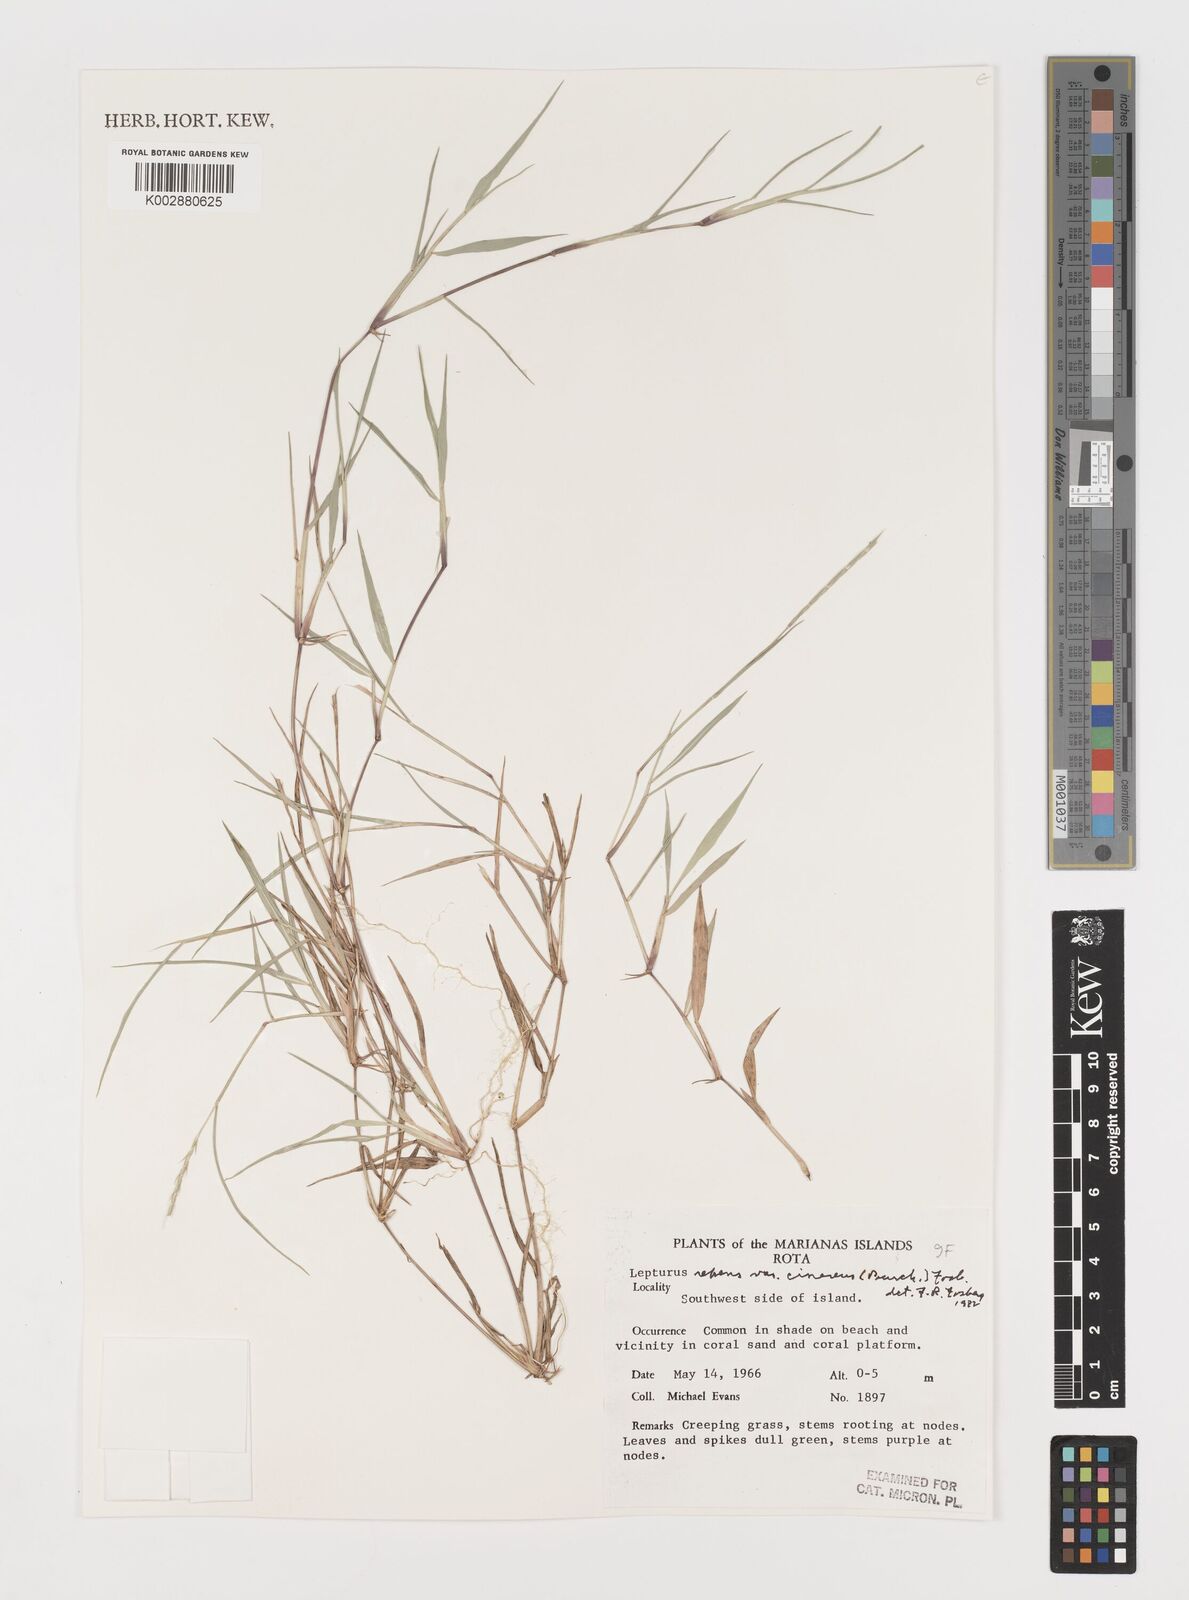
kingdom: Plantae
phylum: Tracheophyta
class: Liliopsida
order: Poales
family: Poaceae
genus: Lepturus
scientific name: Lepturus repens
